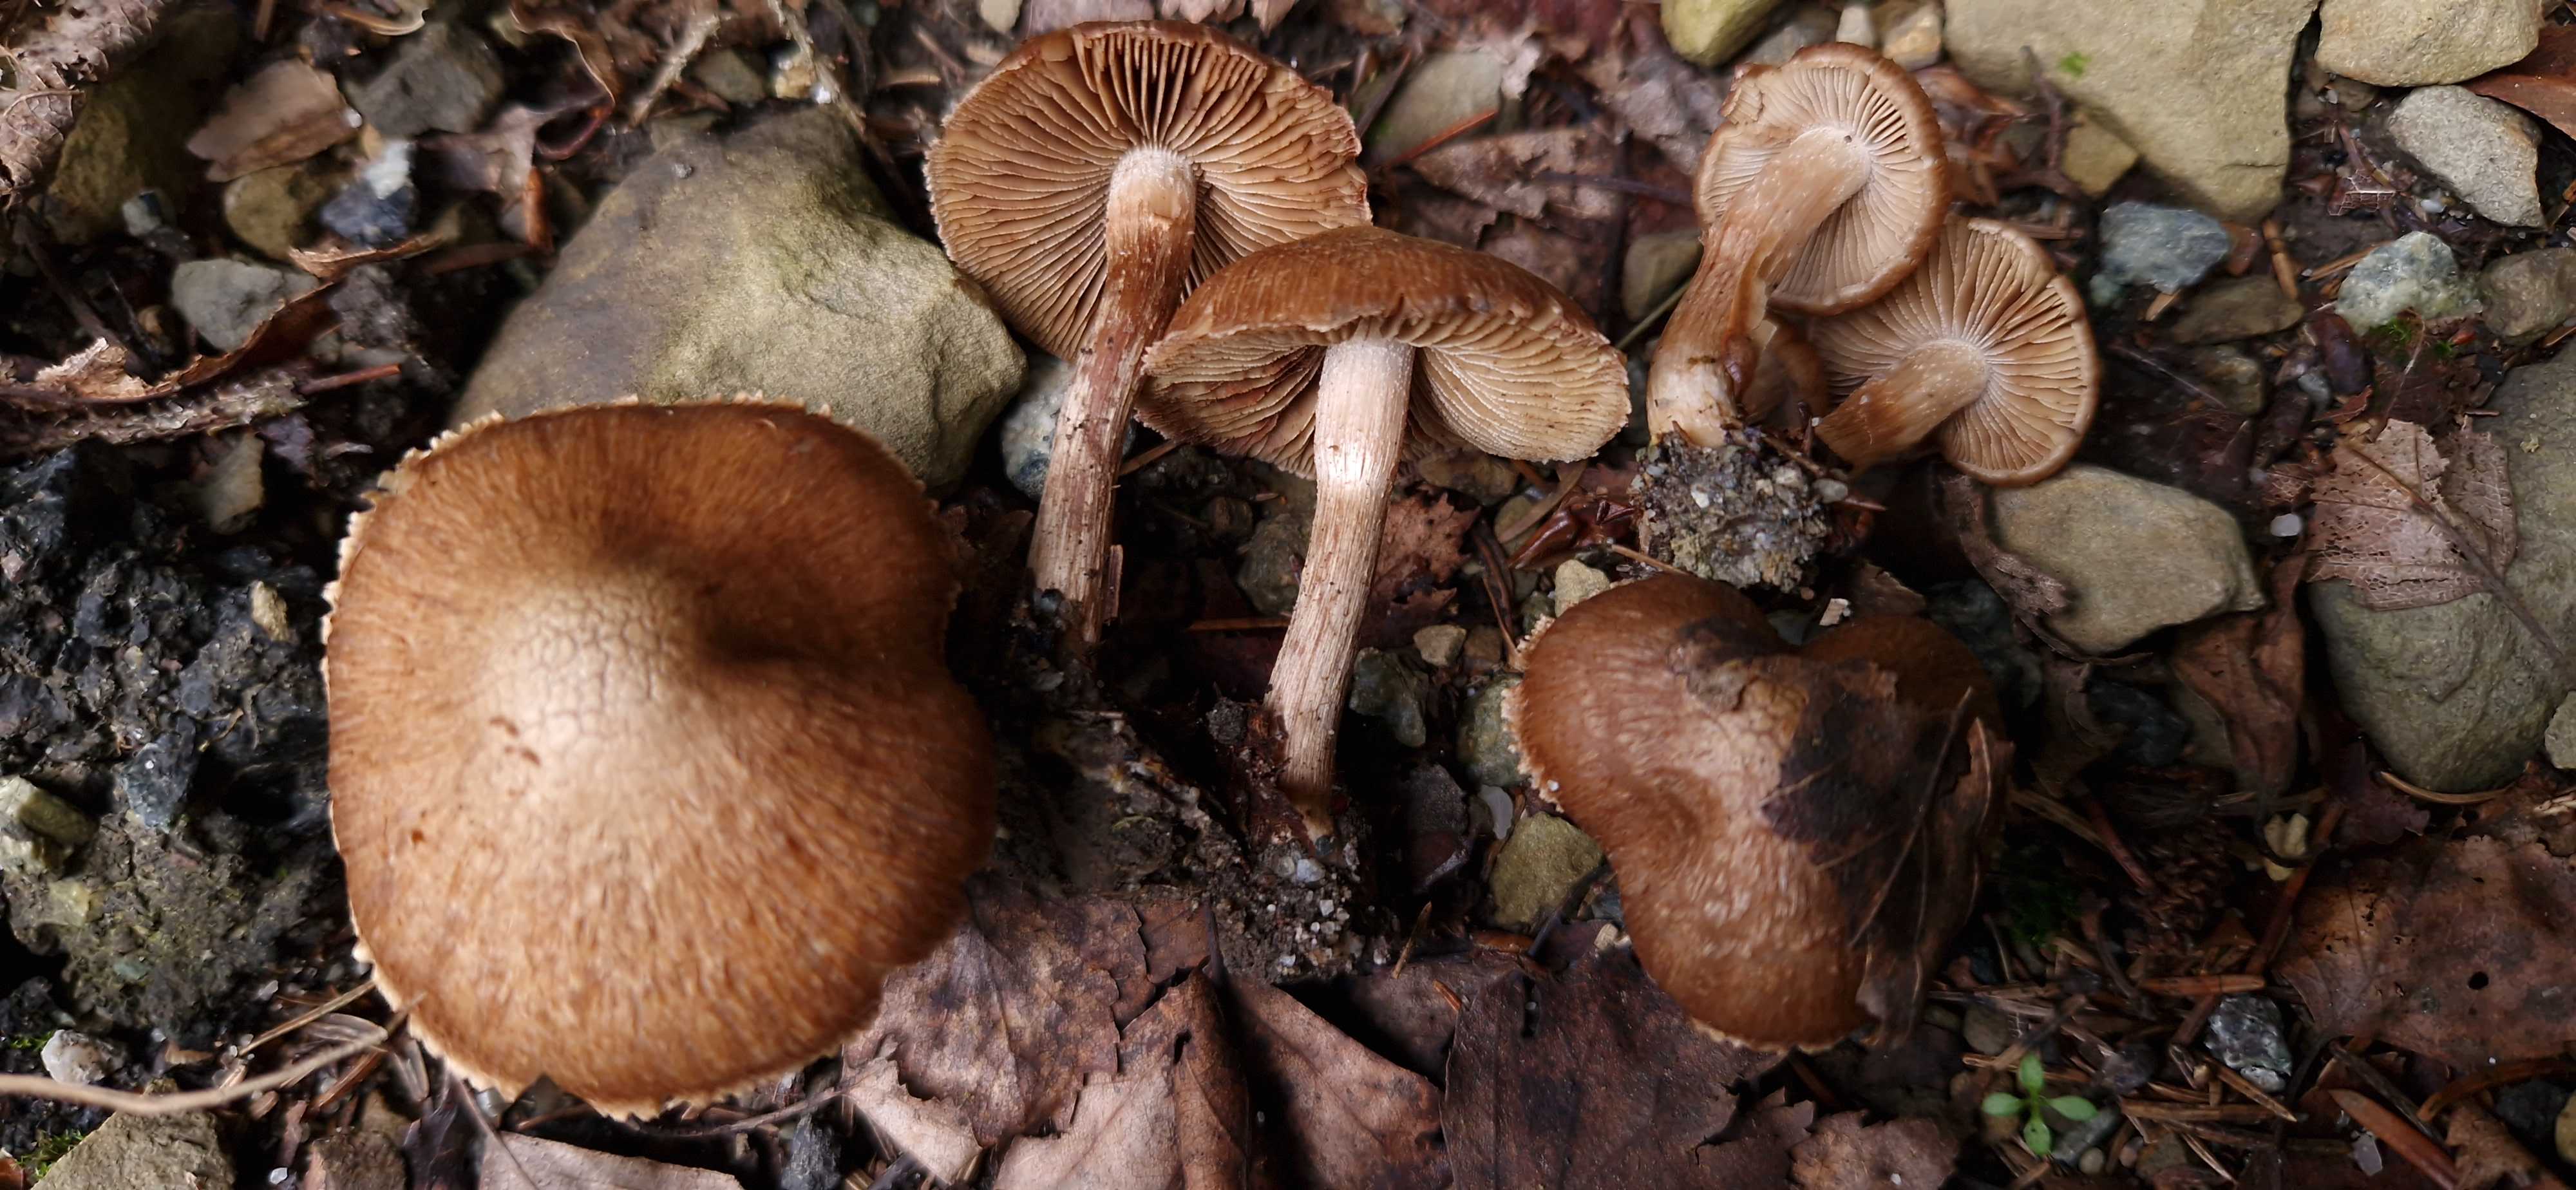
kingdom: Fungi
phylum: Basidiomycota
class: Agaricomycetes
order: Agaricales
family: Inocybaceae
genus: Inosperma
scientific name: Inosperma pisciodorum
